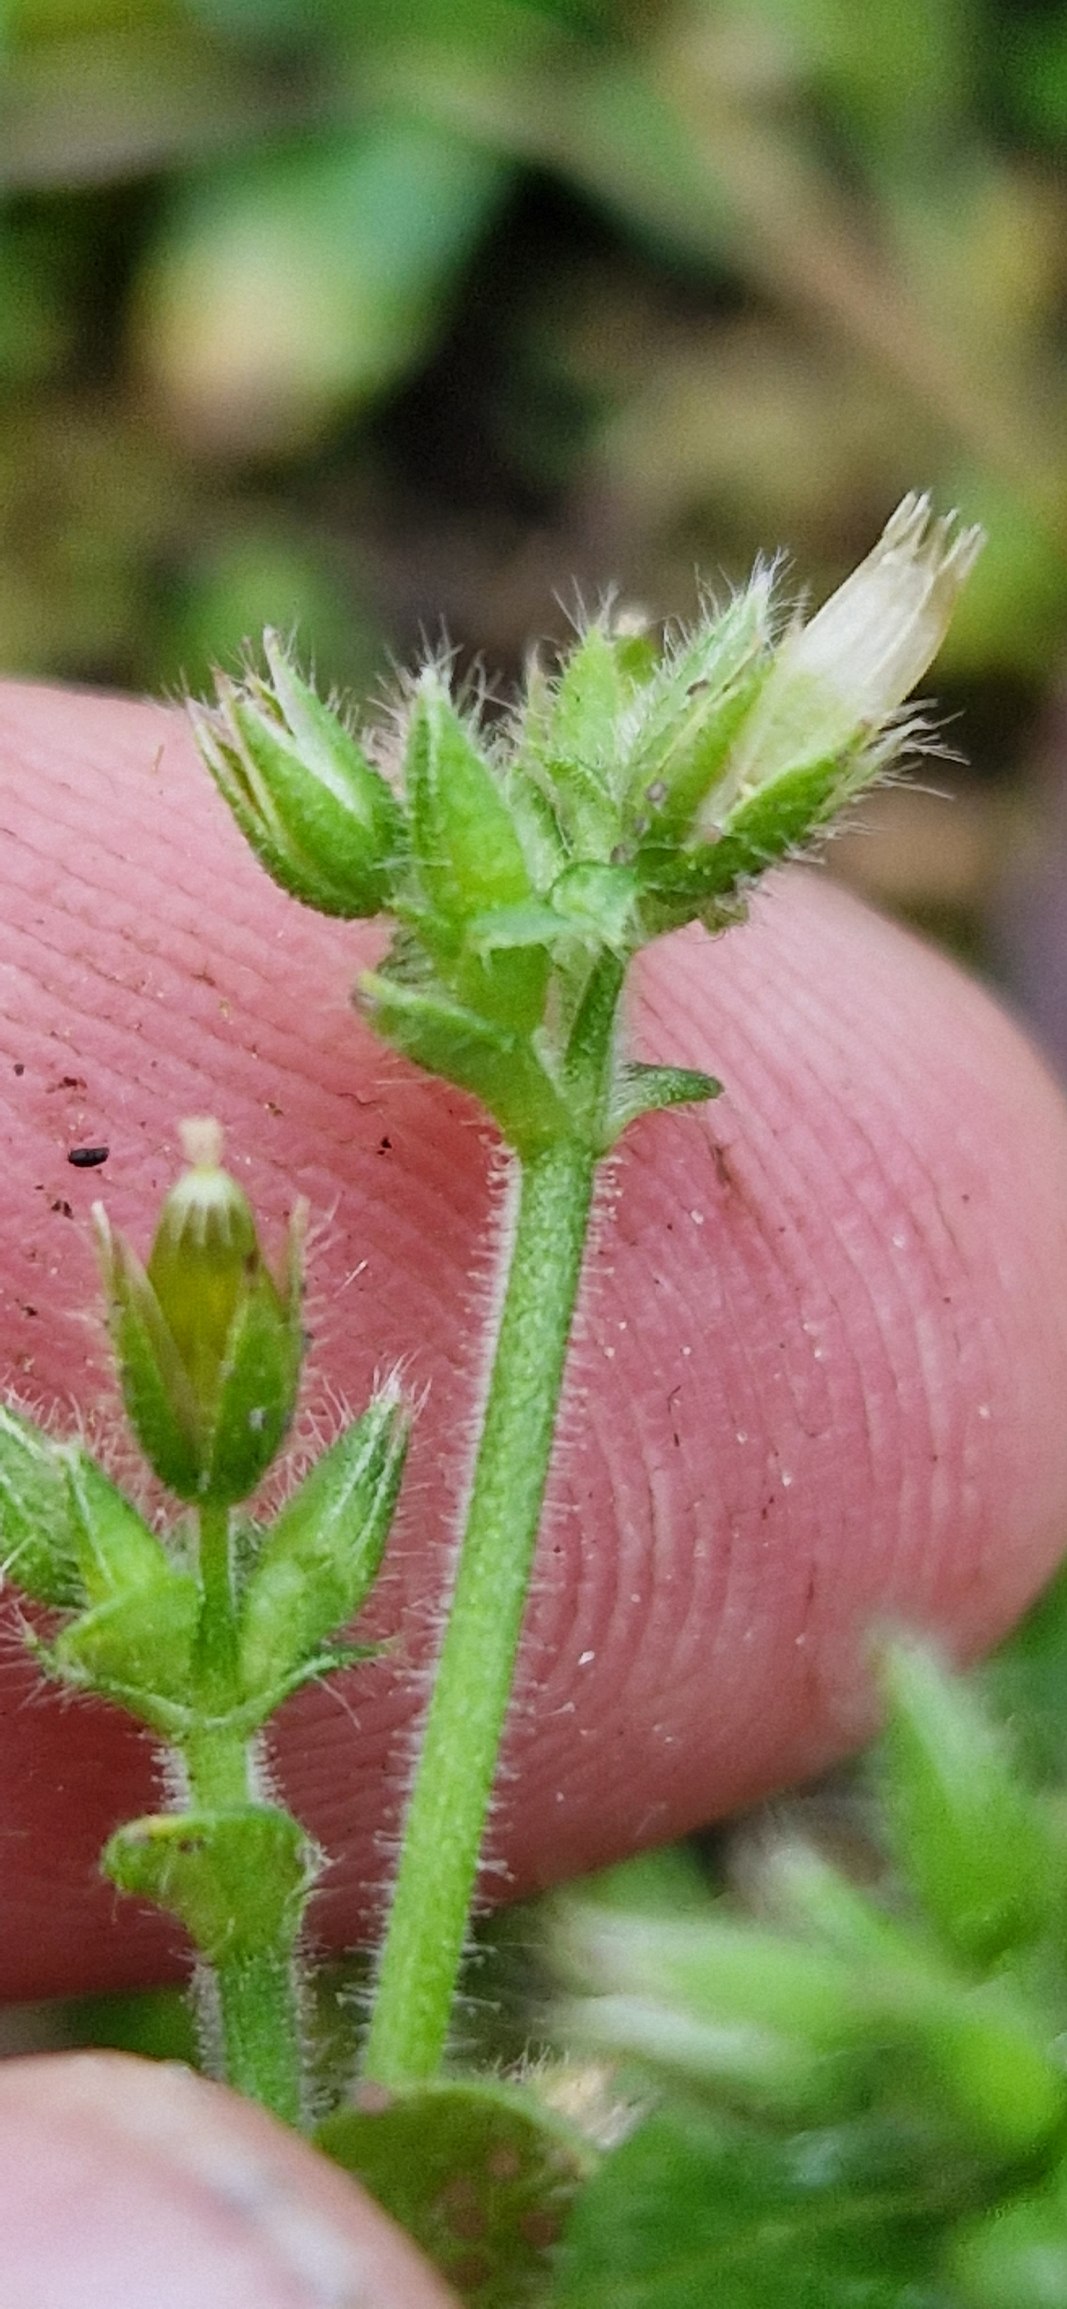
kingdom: Plantae
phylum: Tracheophyta
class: Magnoliopsida
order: Caryophyllales
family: Caryophyllaceae
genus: Cerastium
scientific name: Cerastium glomeratum
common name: Opret hønsetarm
